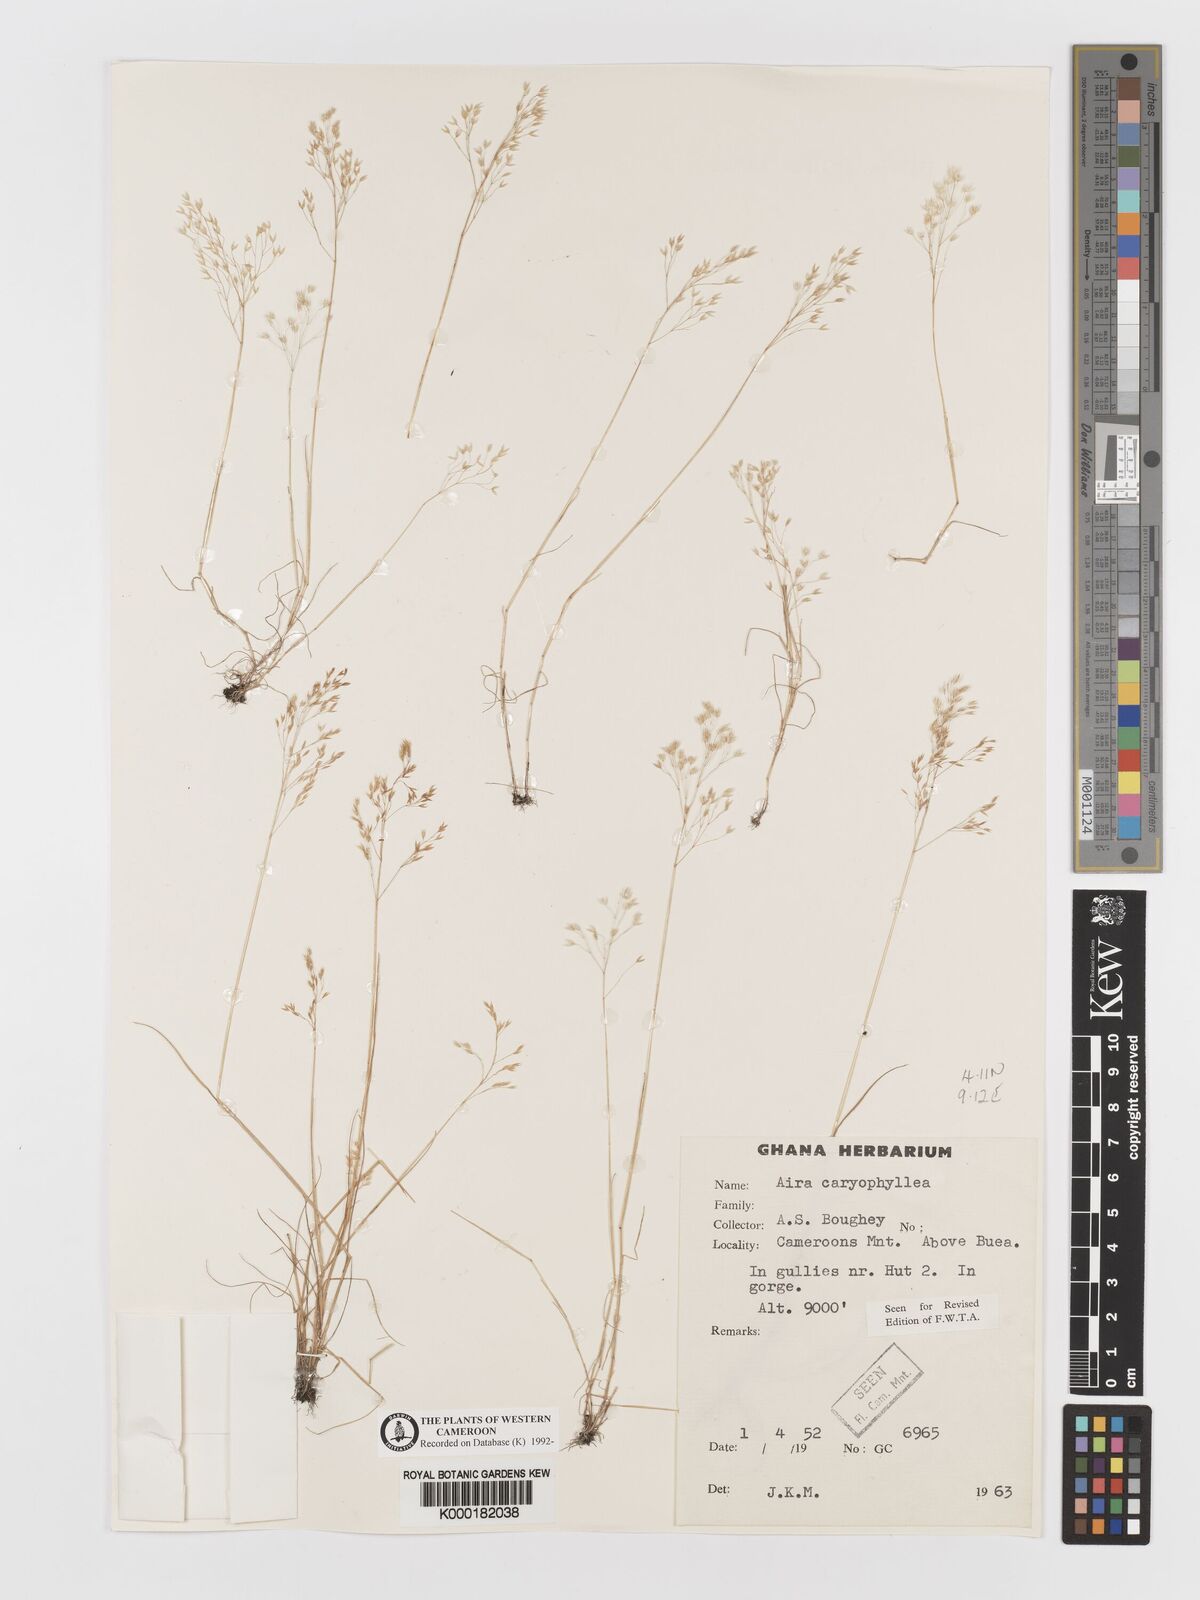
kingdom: Plantae
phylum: Tracheophyta
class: Liliopsida
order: Poales
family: Poaceae
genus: Aira
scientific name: Aira caryophyllea
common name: Silver hairgrass
